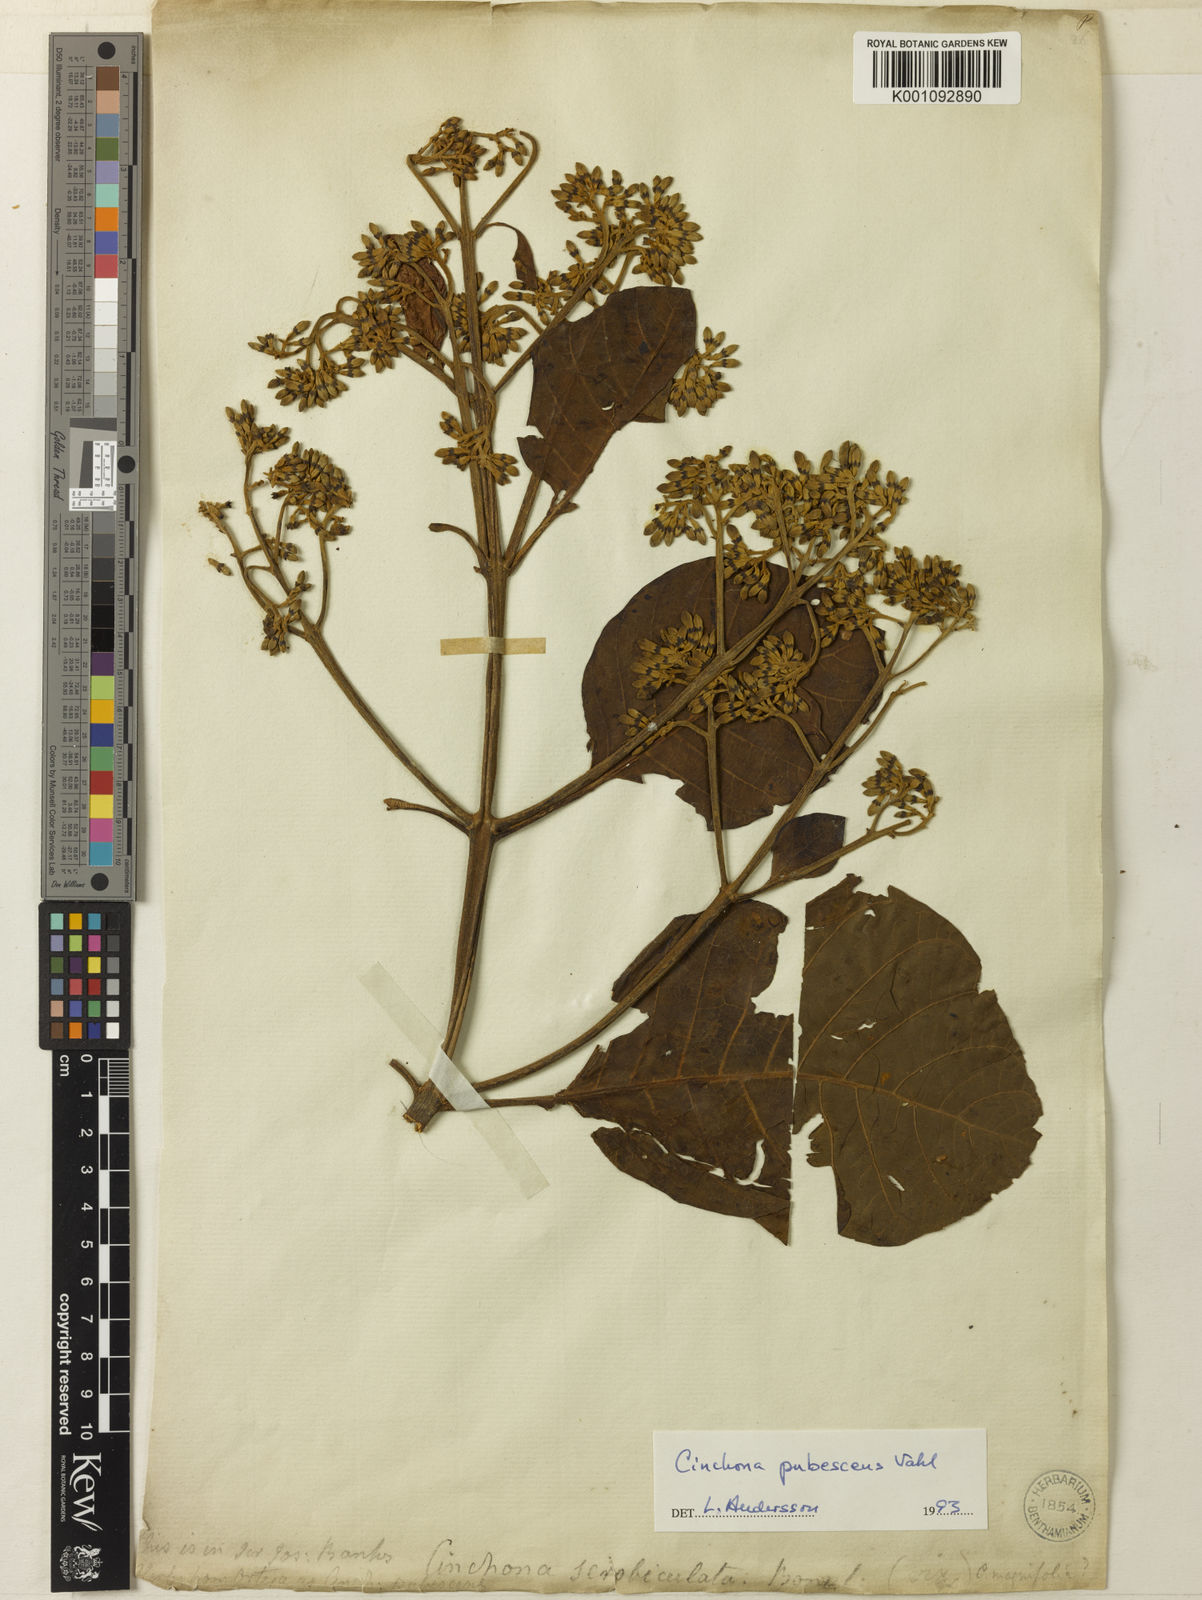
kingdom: Plantae
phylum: Tracheophyta
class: Magnoliopsida
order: Gentianales
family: Rubiaceae
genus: Cinchona
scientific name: Cinchona pubescens
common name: Quinine
